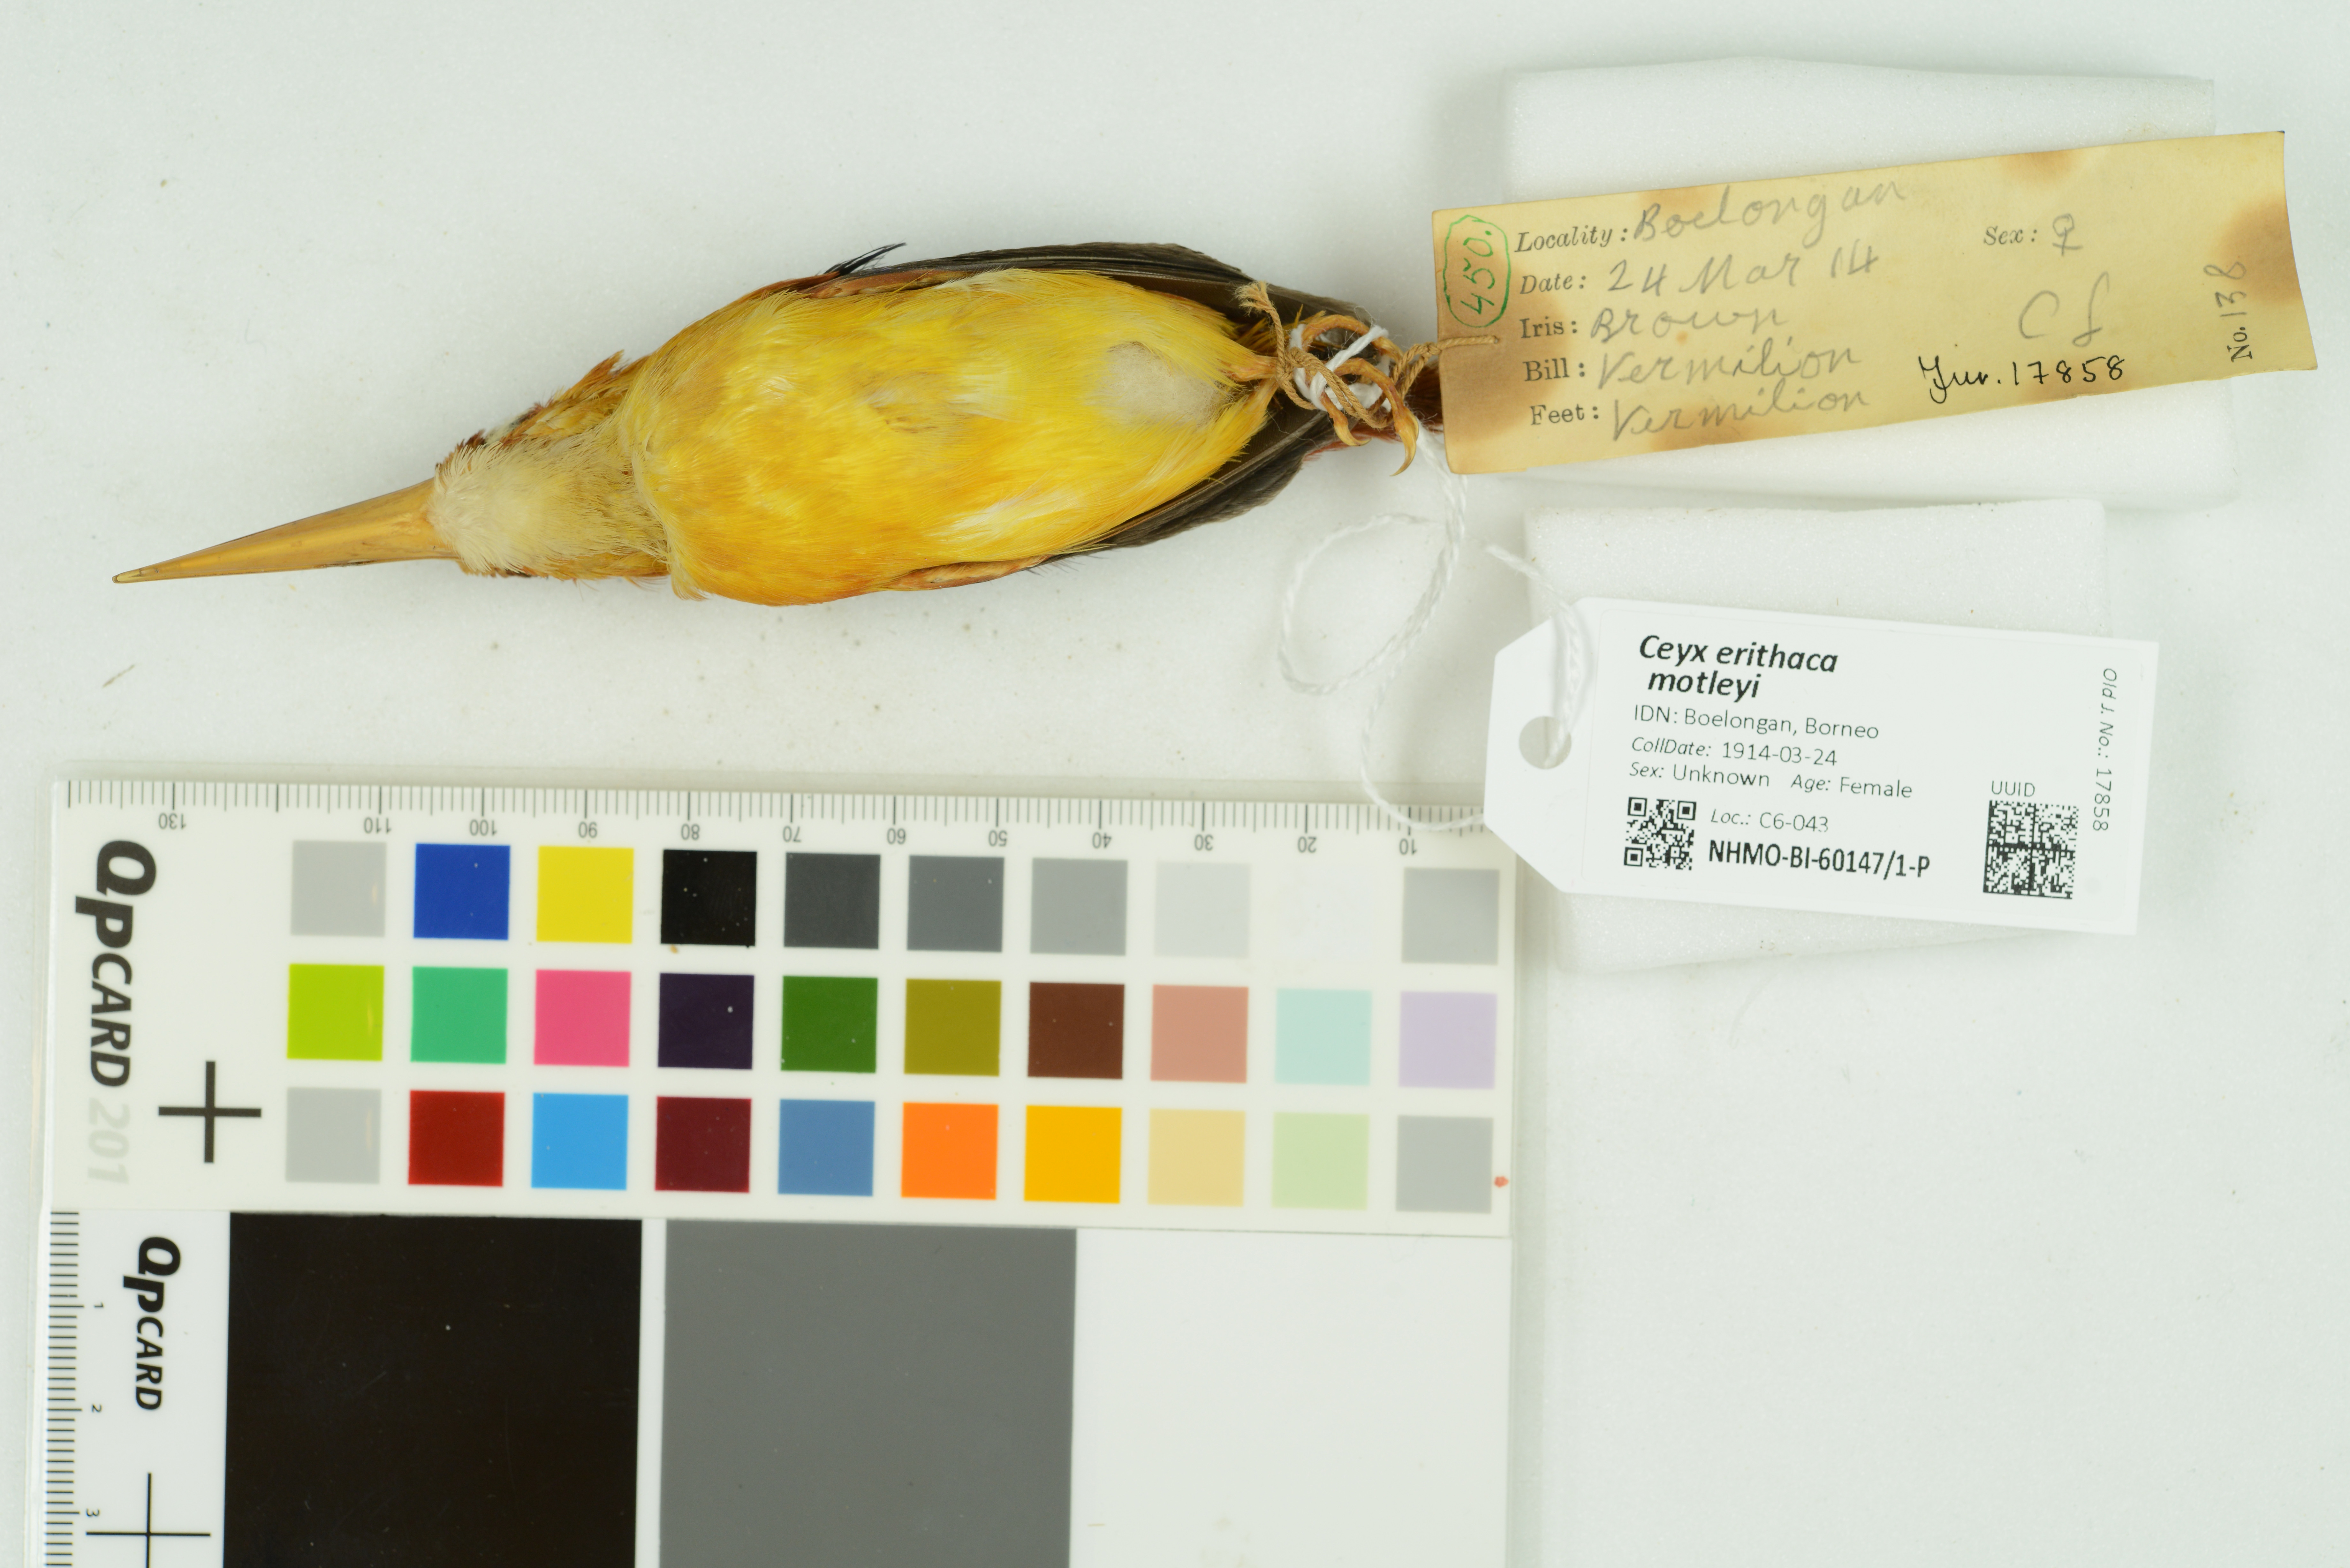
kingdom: Animalia
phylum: Chordata
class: Aves
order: Coraciiformes
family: Alcedinidae
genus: Ceyx
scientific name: Ceyx erithaca
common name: Oriental dwarf kingfisher
